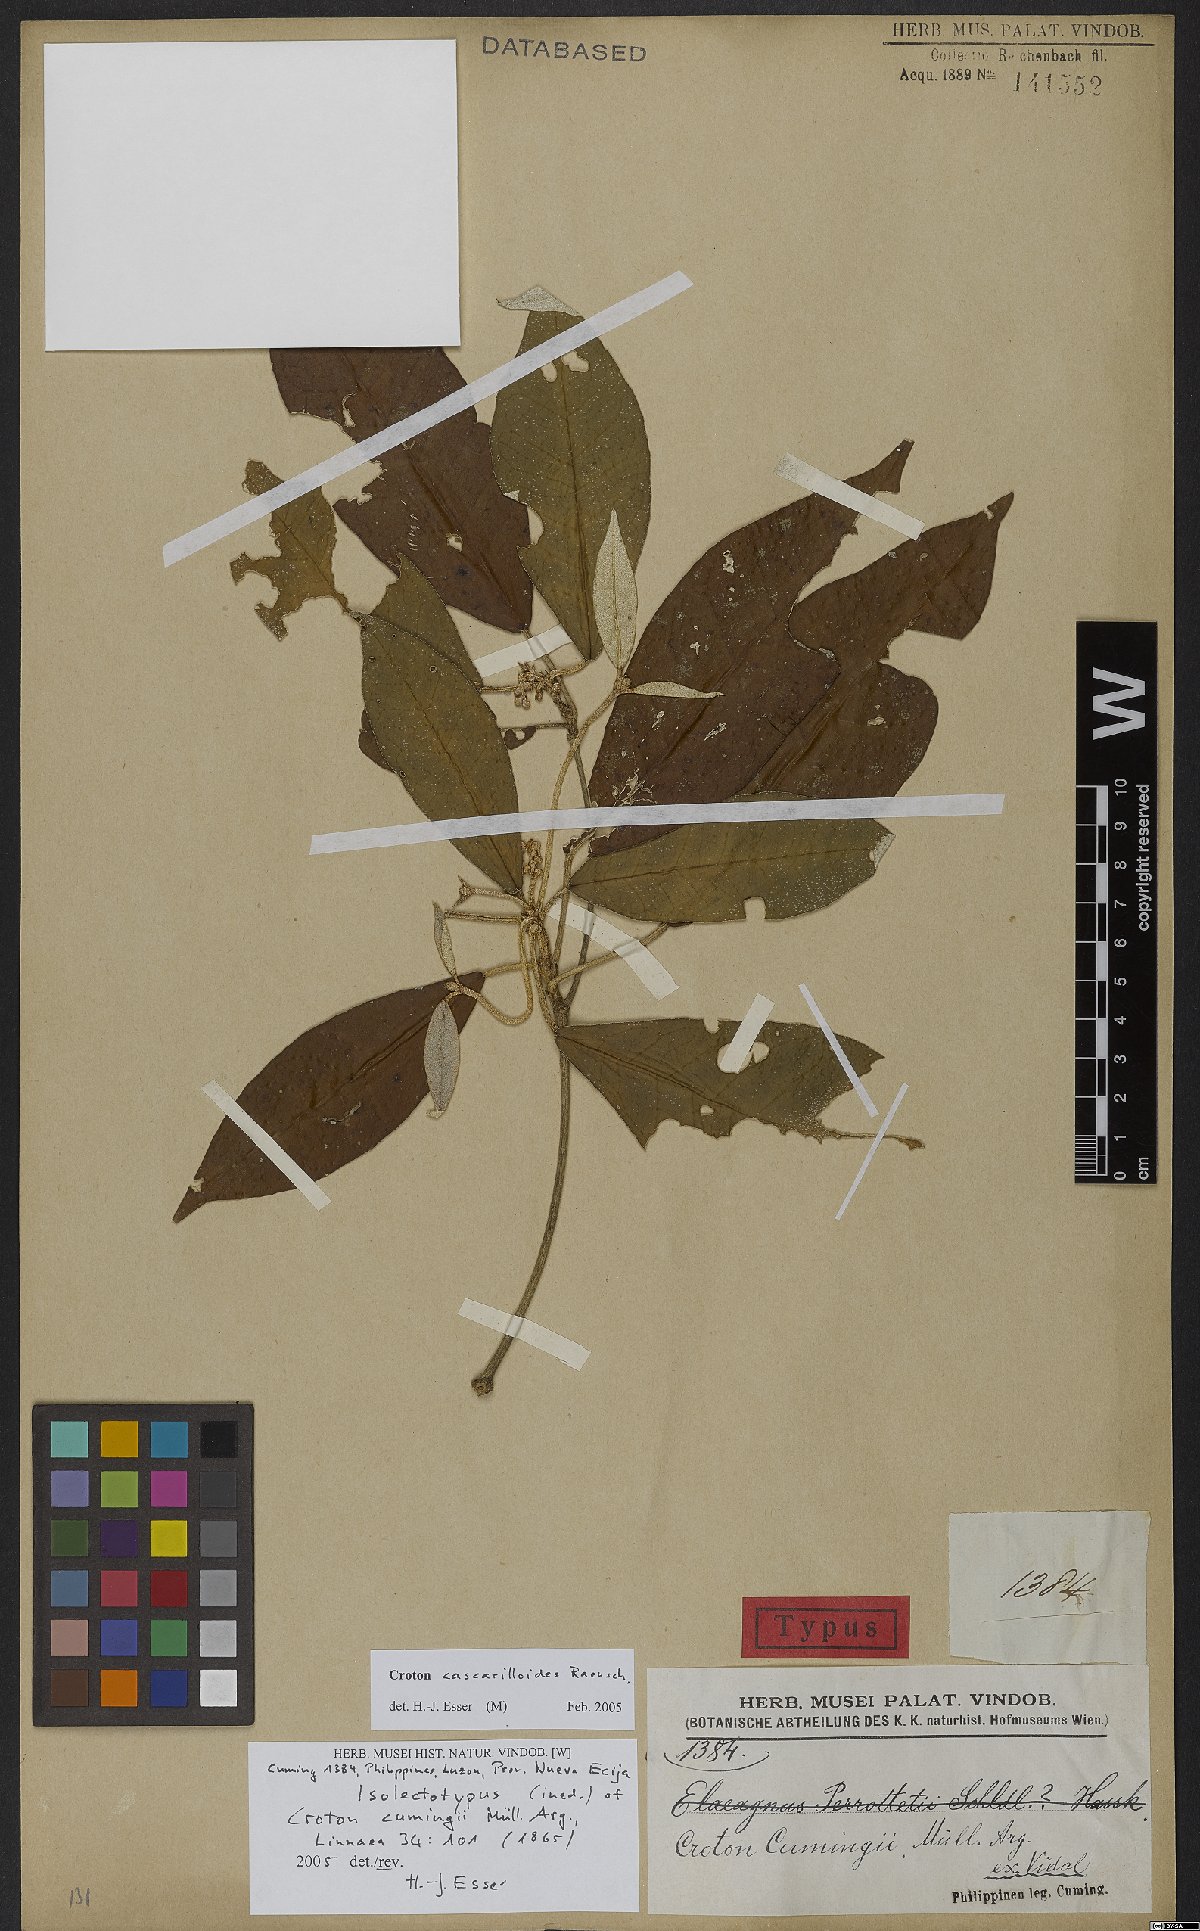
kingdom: Plantae
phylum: Tracheophyta
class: Magnoliopsida
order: Malpighiales
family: Euphorbiaceae
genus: Croton
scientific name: Croton cascarilloides
